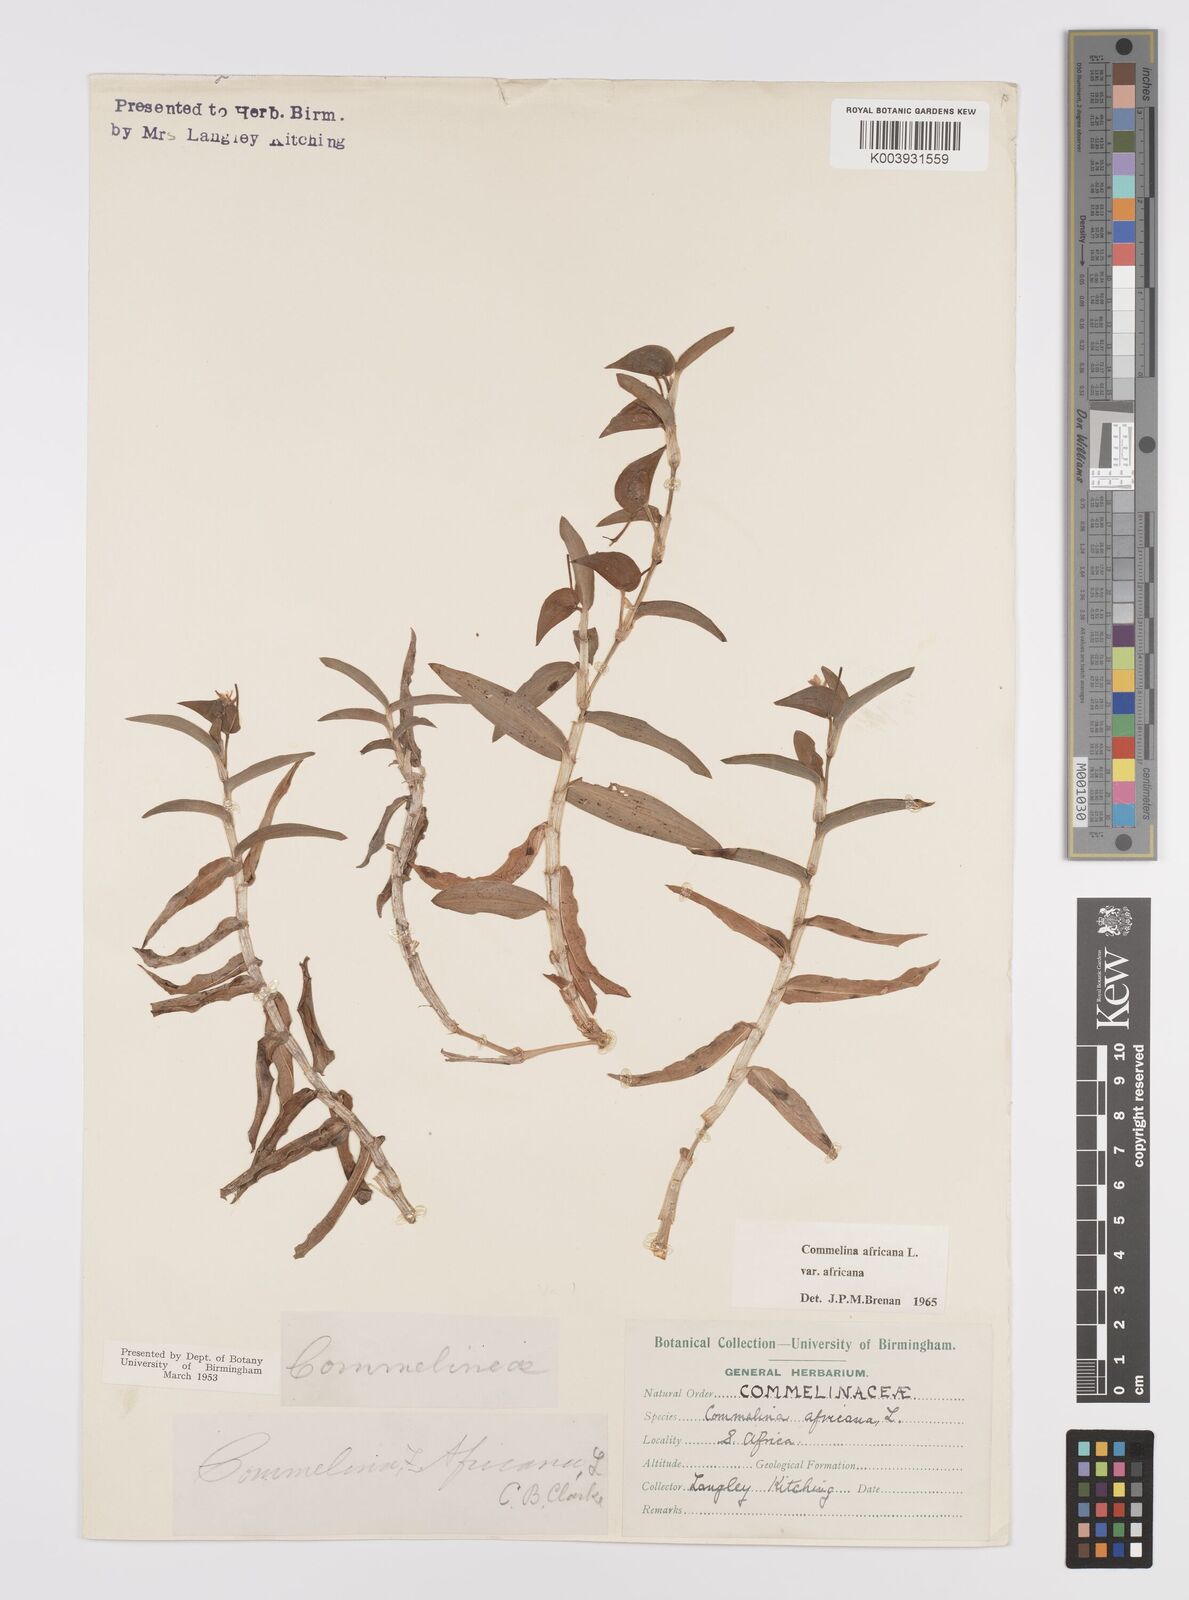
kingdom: Plantae
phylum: Tracheophyta
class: Liliopsida
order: Commelinales
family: Commelinaceae
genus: Commelina
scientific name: Commelina africana
